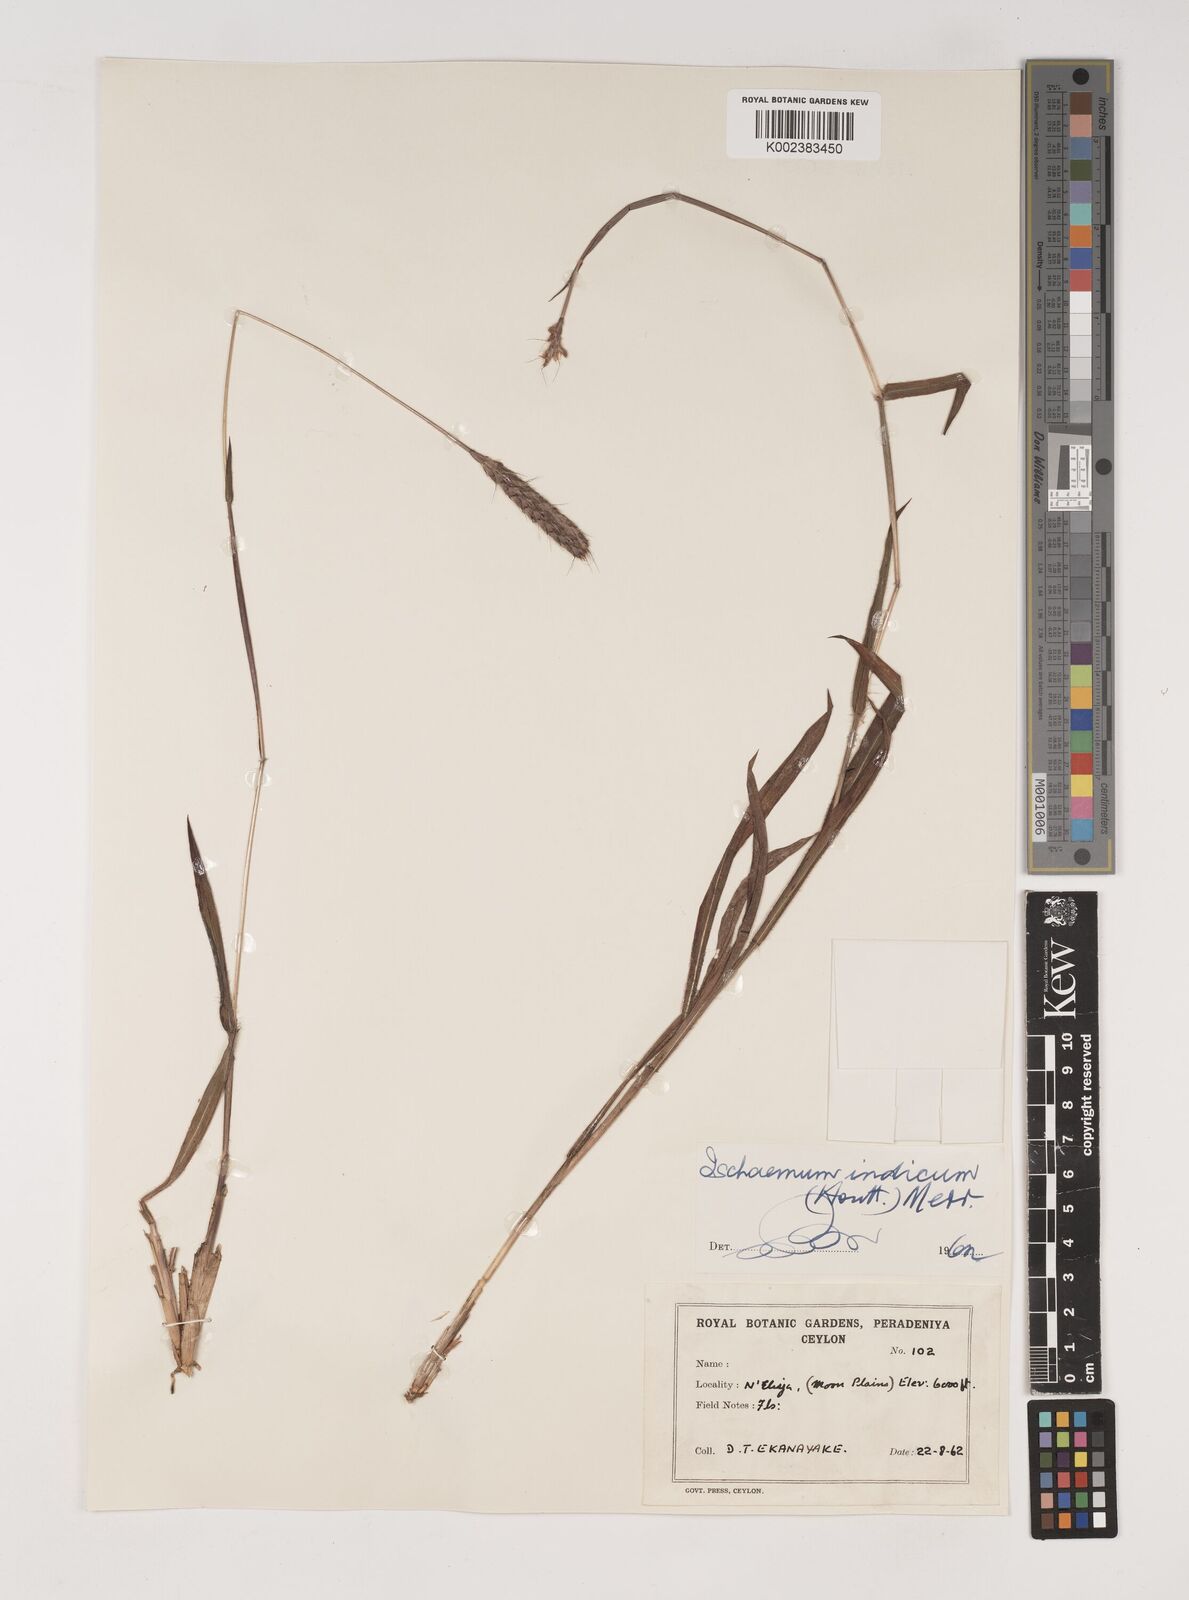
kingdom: Plantae
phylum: Tracheophyta
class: Liliopsida
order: Poales
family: Poaceae
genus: Polytrias
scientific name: Polytrias indica
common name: Indian murainagrass
